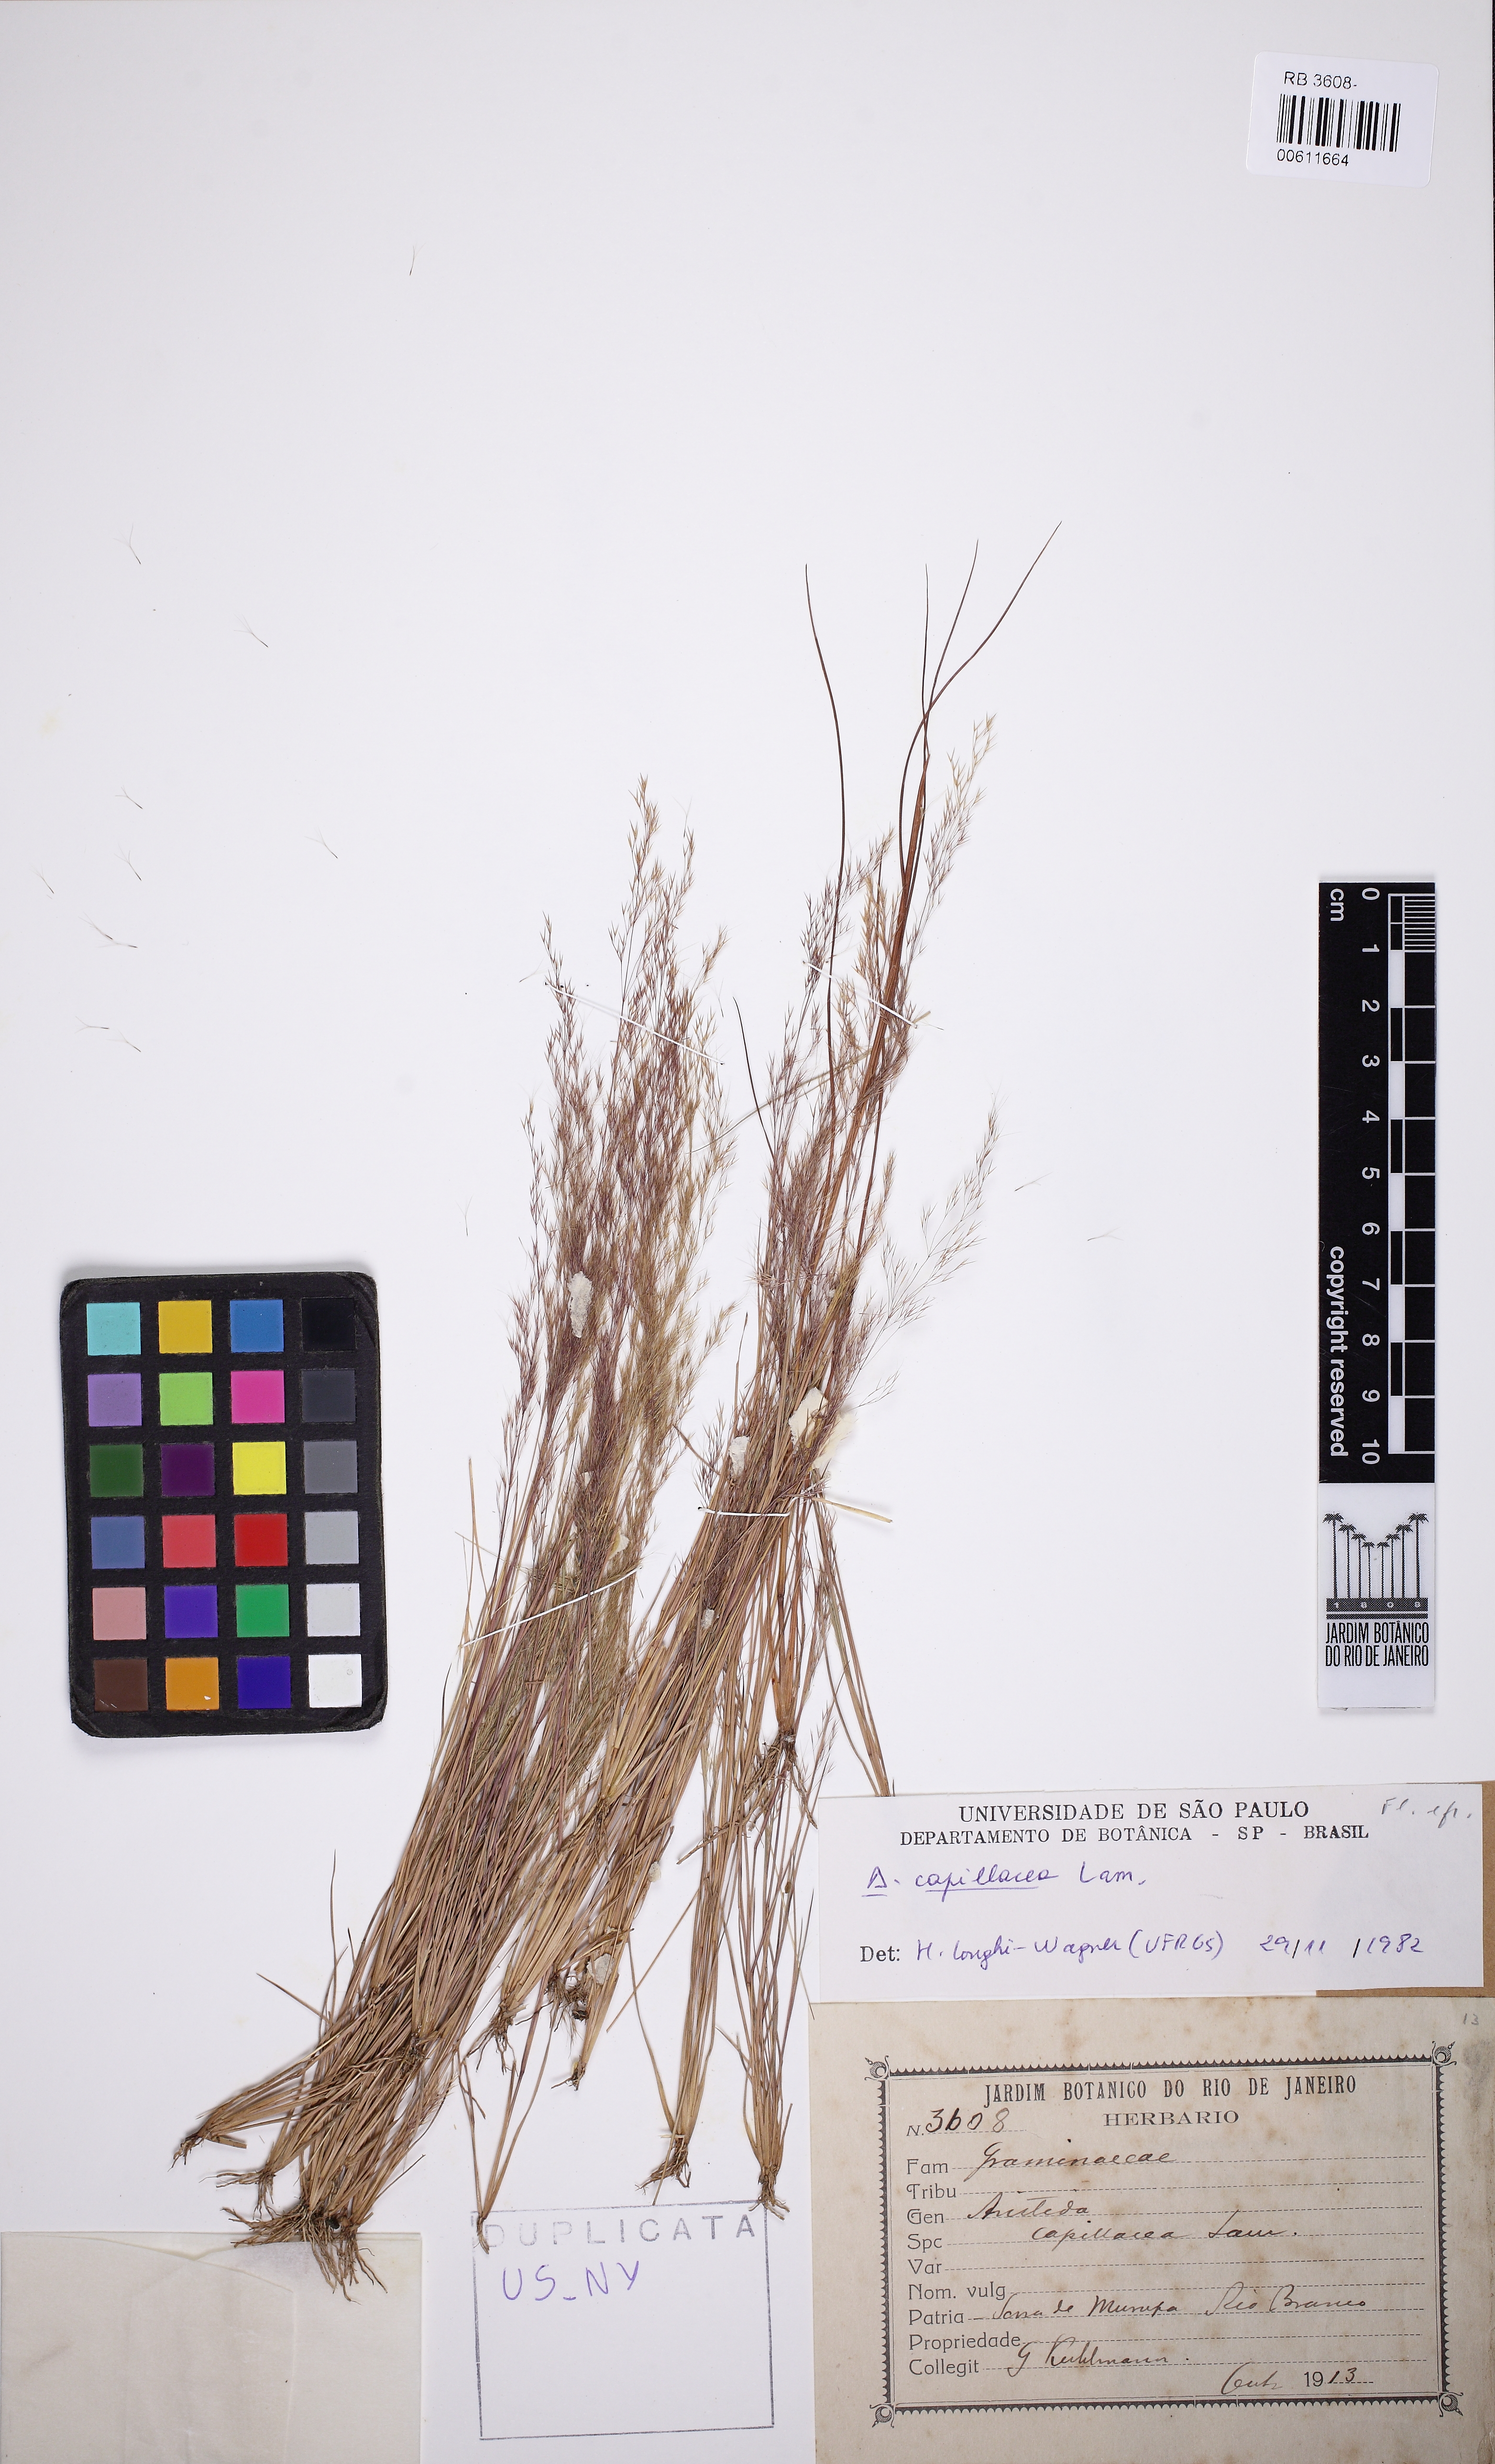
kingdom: Plantae
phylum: Tracheophyta
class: Liliopsida
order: Poales
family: Poaceae
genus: Aristida
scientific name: Aristida capillacea
